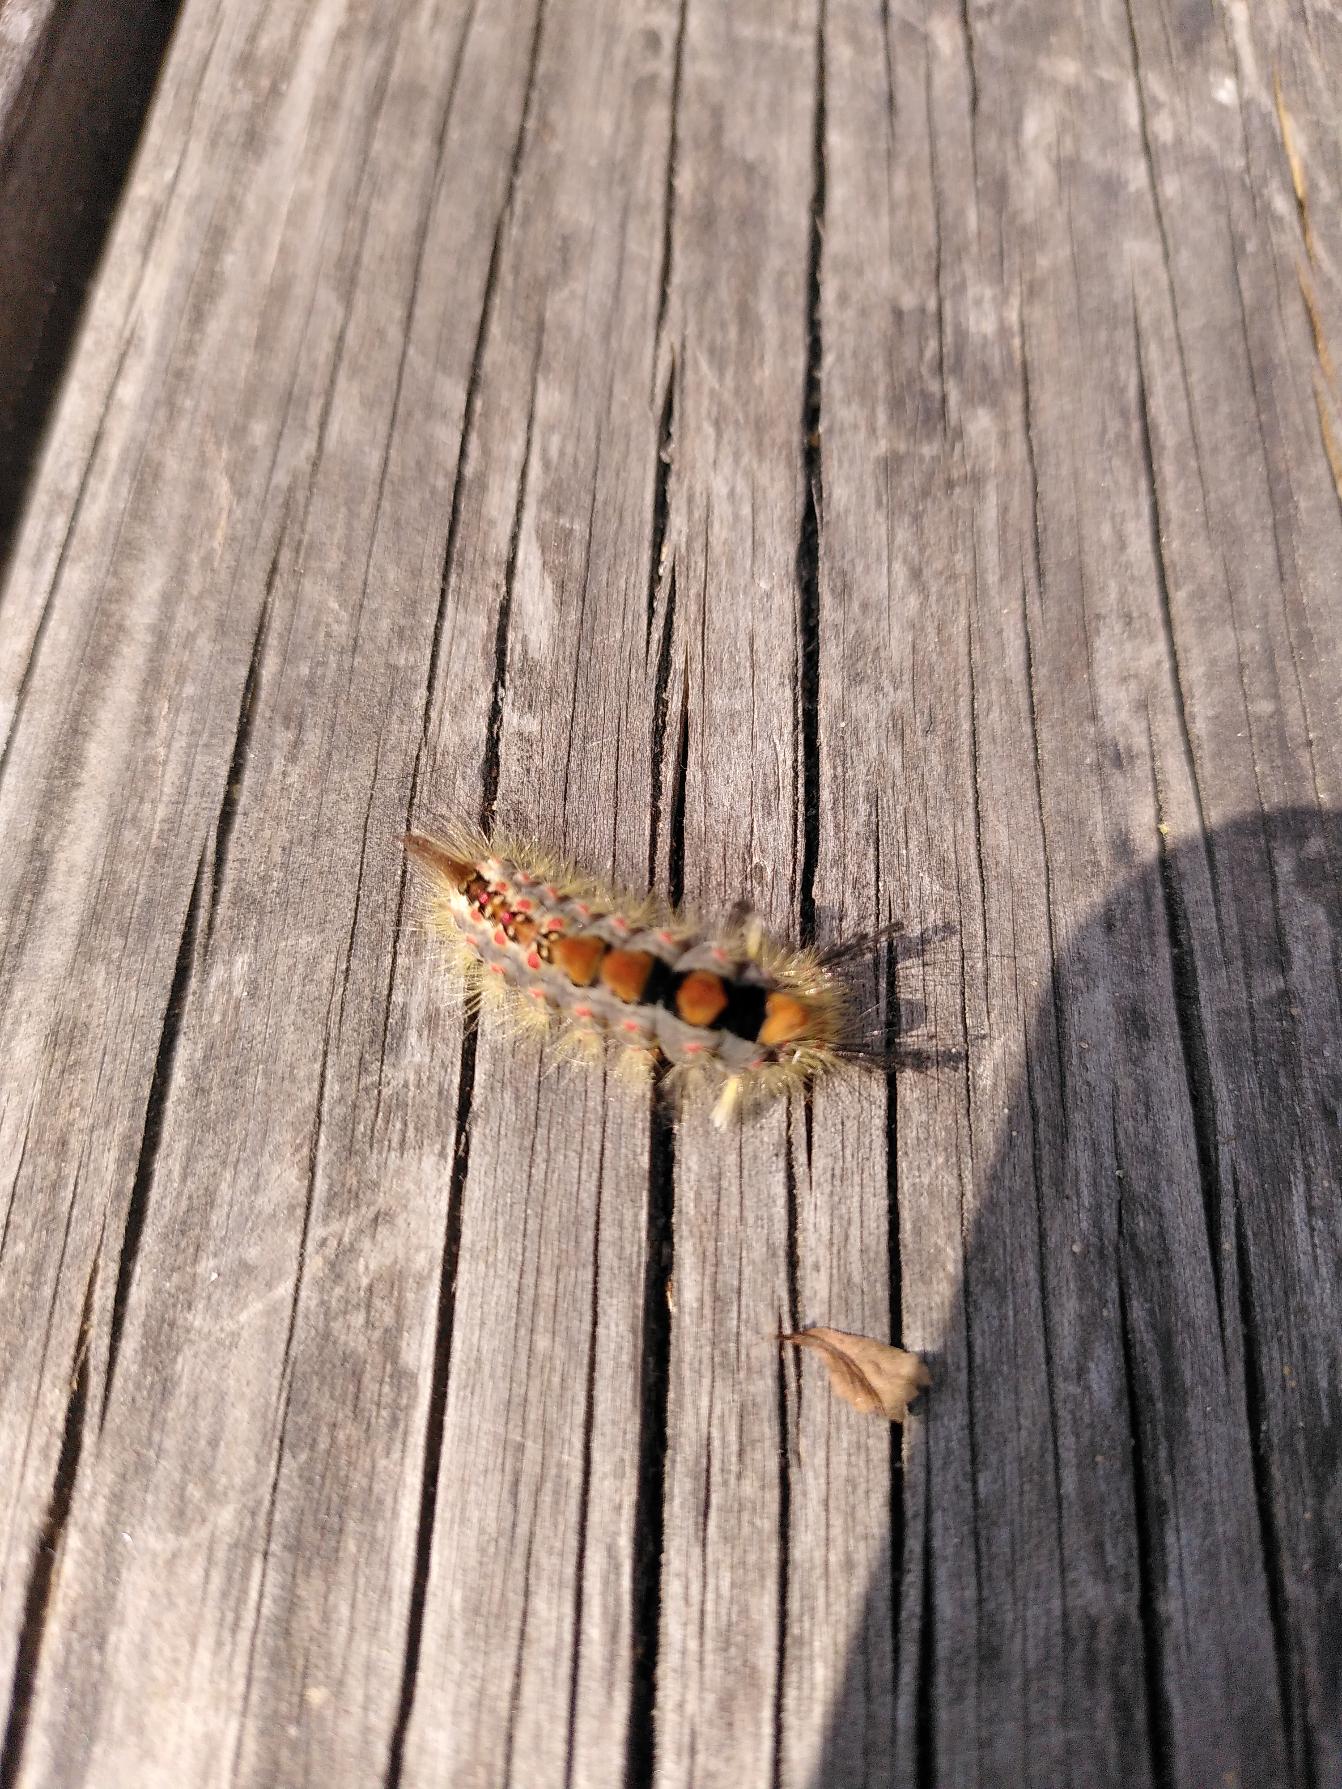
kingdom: Animalia
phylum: Arthropoda
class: Insecta
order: Lepidoptera
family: Erebidae
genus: Orgyia
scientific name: Orgyia antiqua
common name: Lille penselspinder
